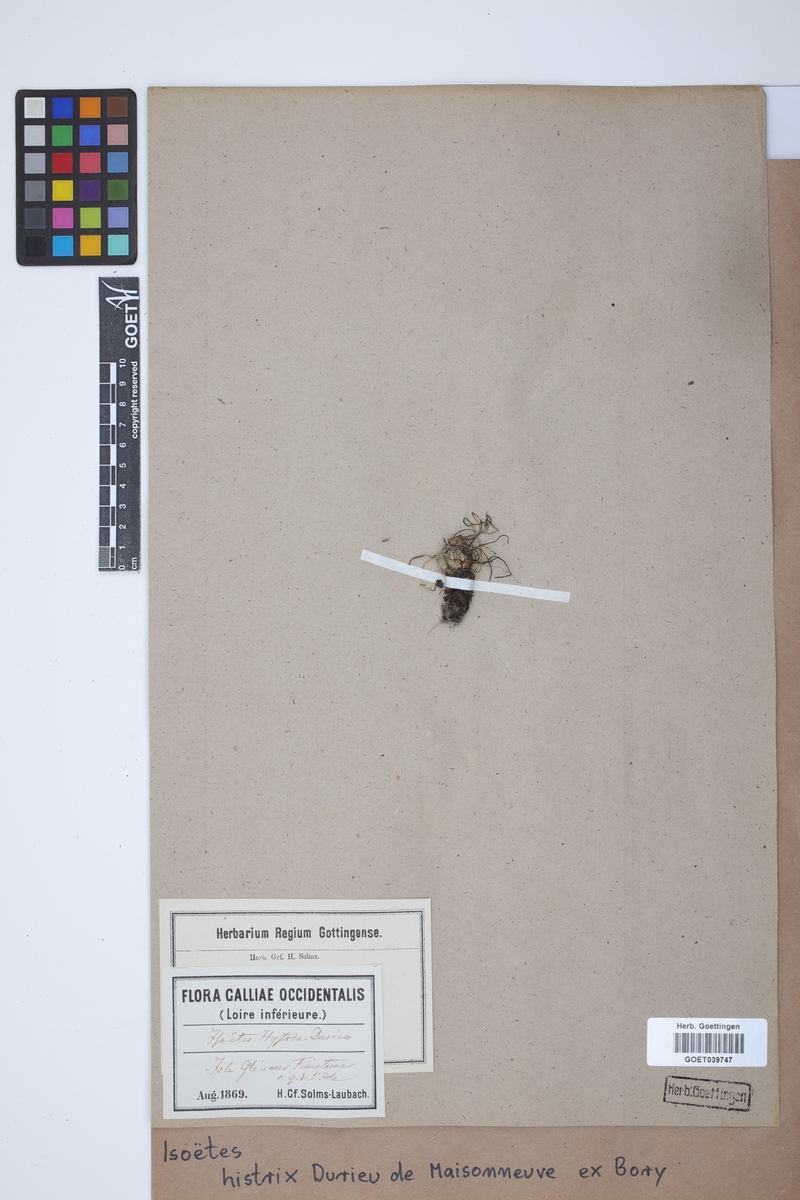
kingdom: Plantae
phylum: Tracheophyta
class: Lycopodiopsida
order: Isoetales
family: Isoetaceae
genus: Isoetes
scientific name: Isoetes histrix
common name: Land quillwort
